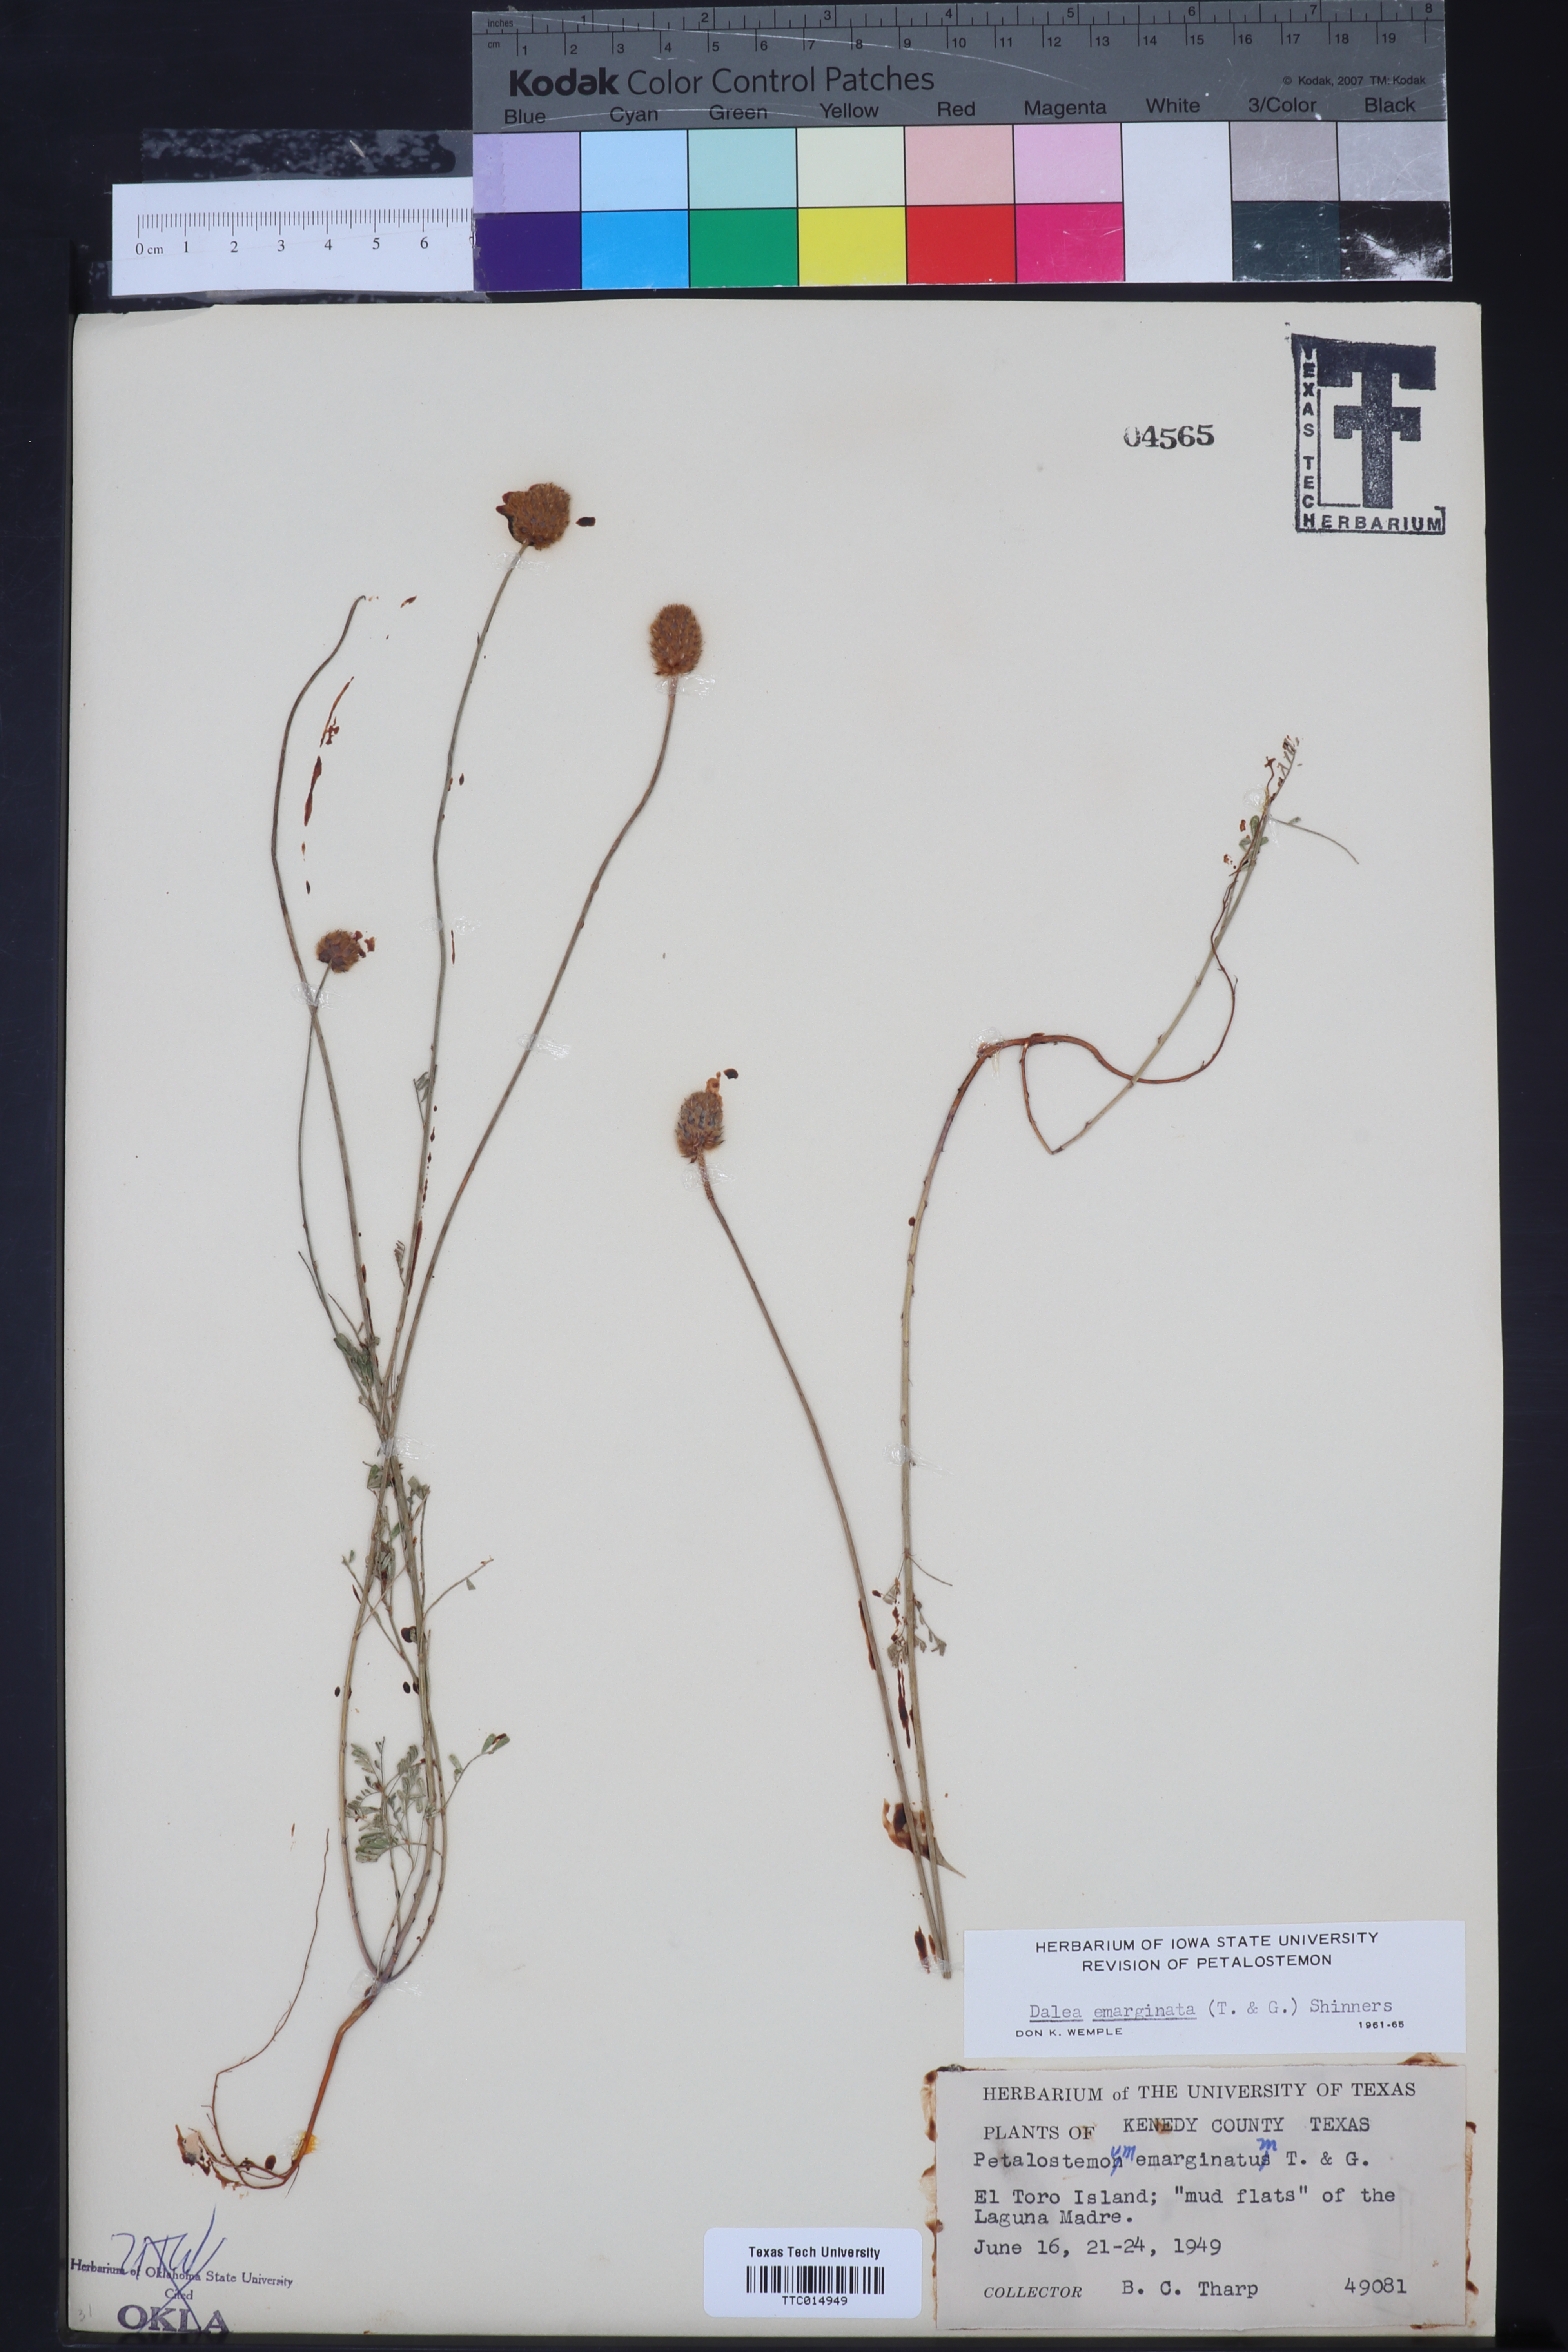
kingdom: Plantae
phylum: Tracheophyta
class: Magnoliopsida
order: Fabales
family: Fabaceae
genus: Dalea
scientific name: Dalea emarginata
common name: Wedgeleaf prairie clover
